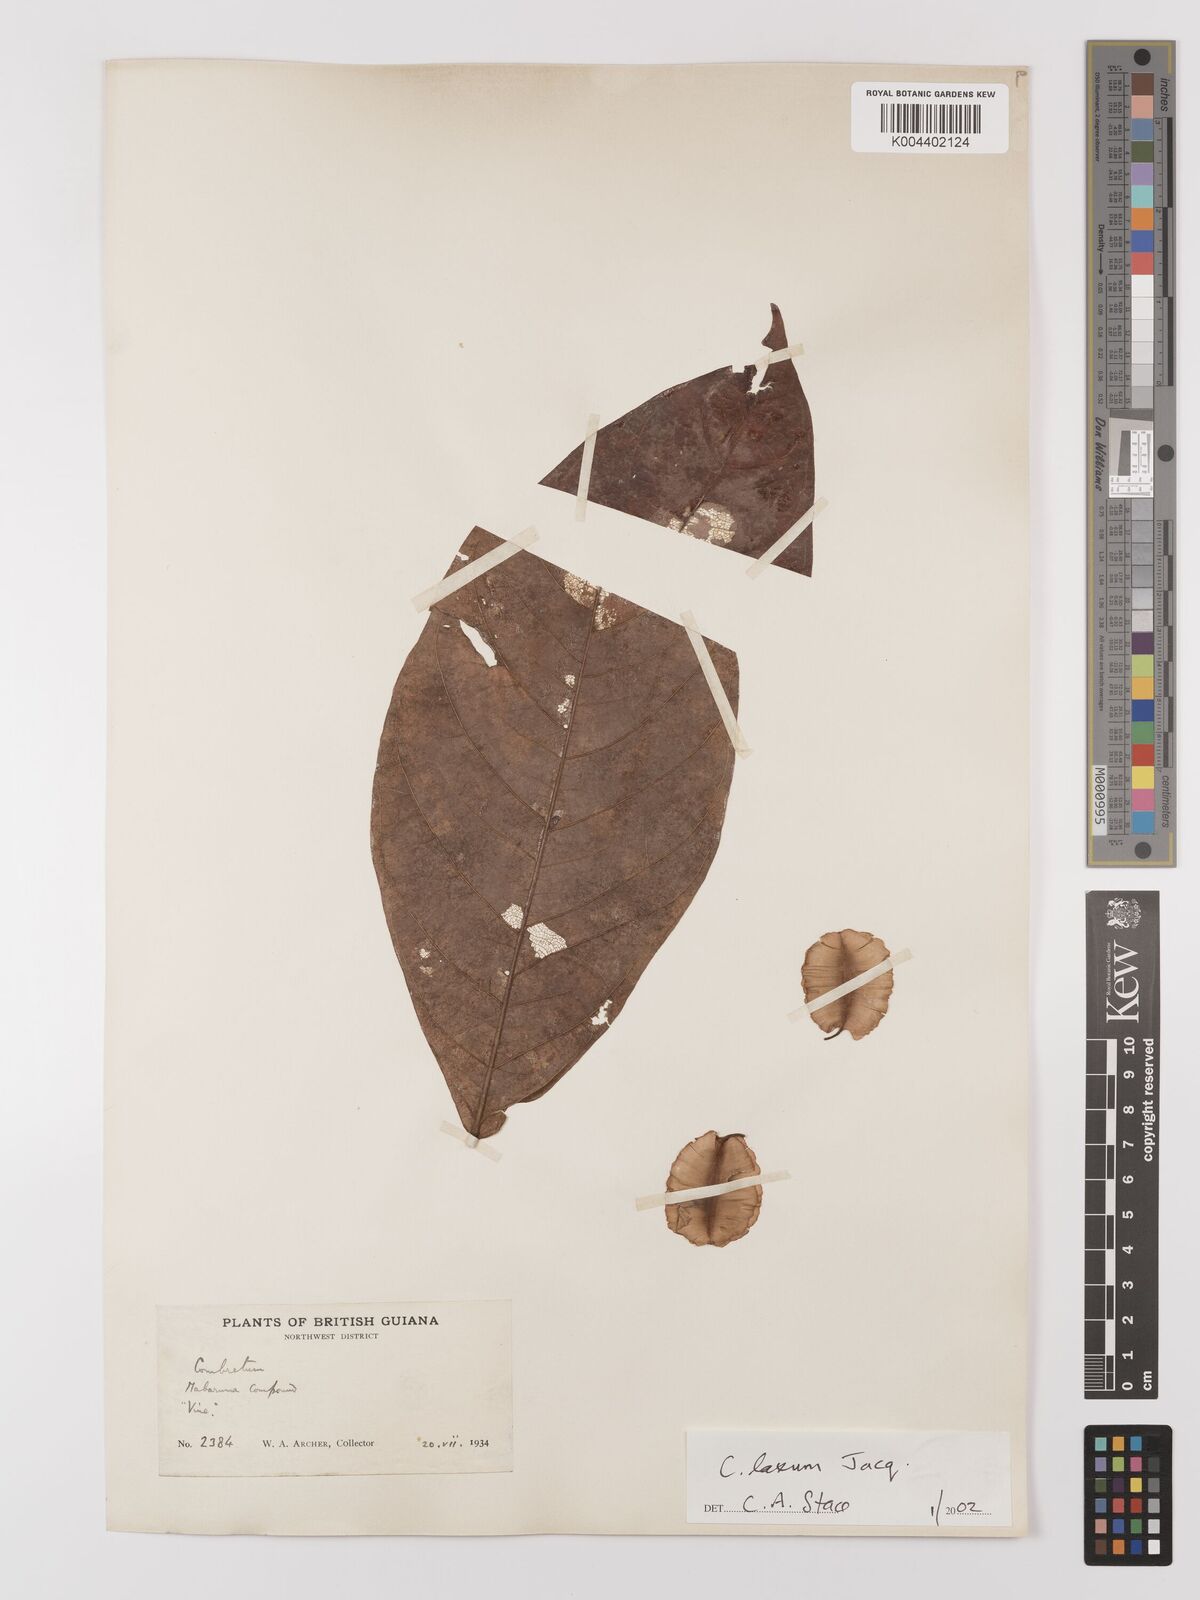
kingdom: Plantae
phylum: Tracheophyta
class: Magnoliopsida
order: Myrtales
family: Combretaceae
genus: Combretum
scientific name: Combretum
